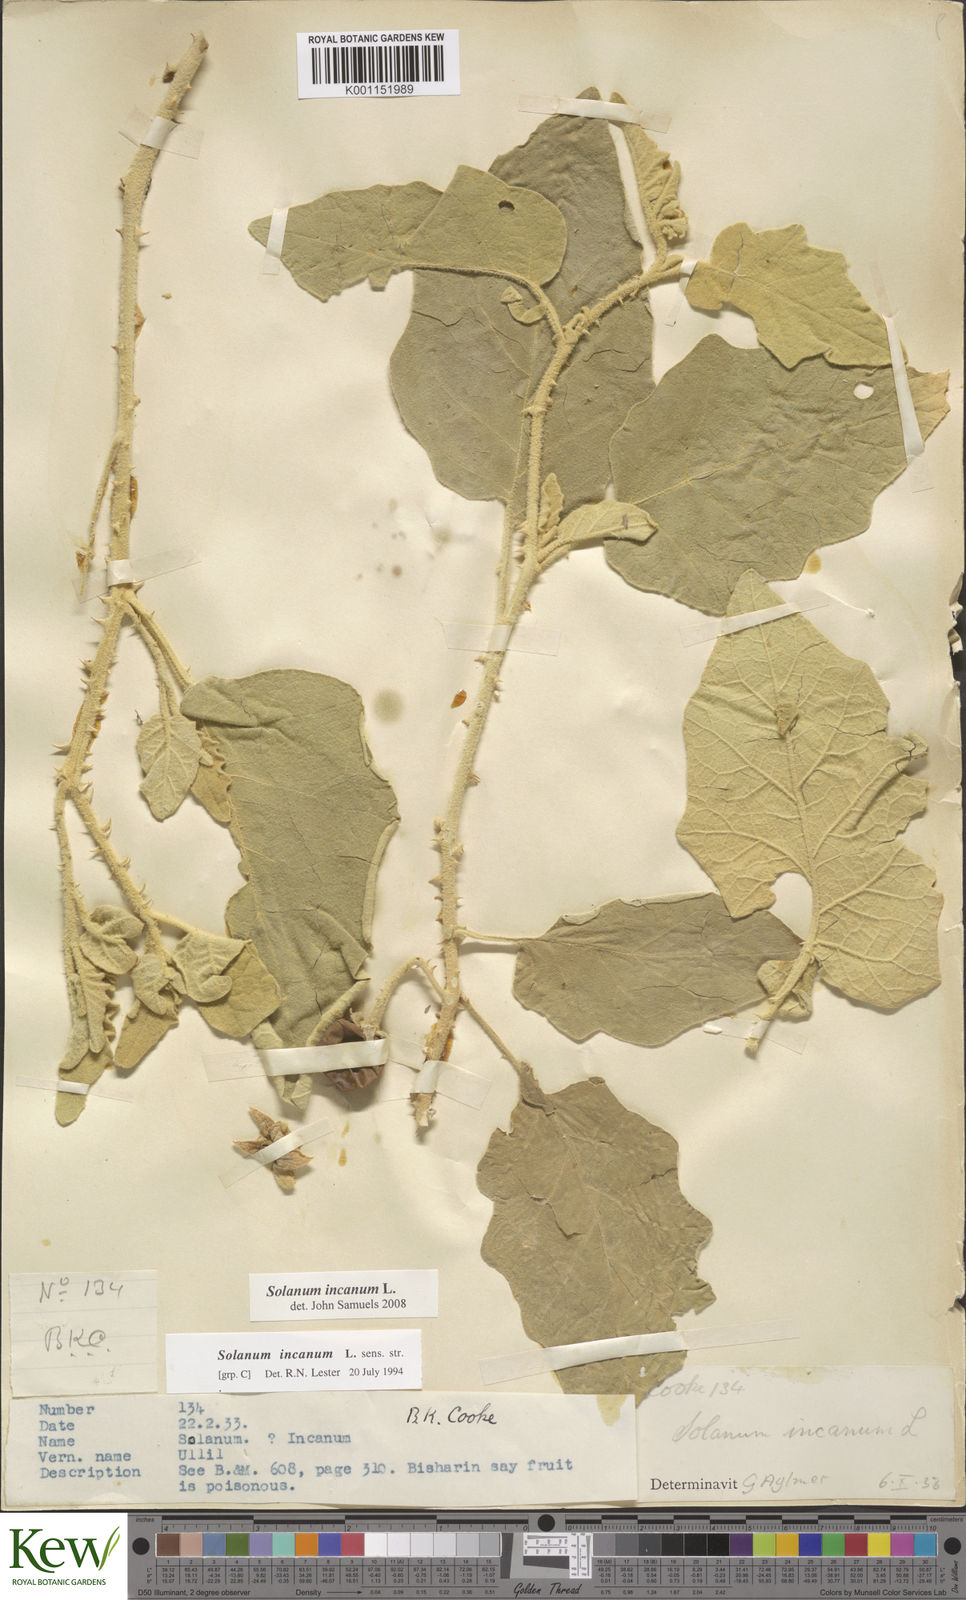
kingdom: Plantae
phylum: Tracheophyta
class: Magnoliopsida
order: Solanales
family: Solanaceae
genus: Solanum
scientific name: Solanum incanum
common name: Bitter apple
